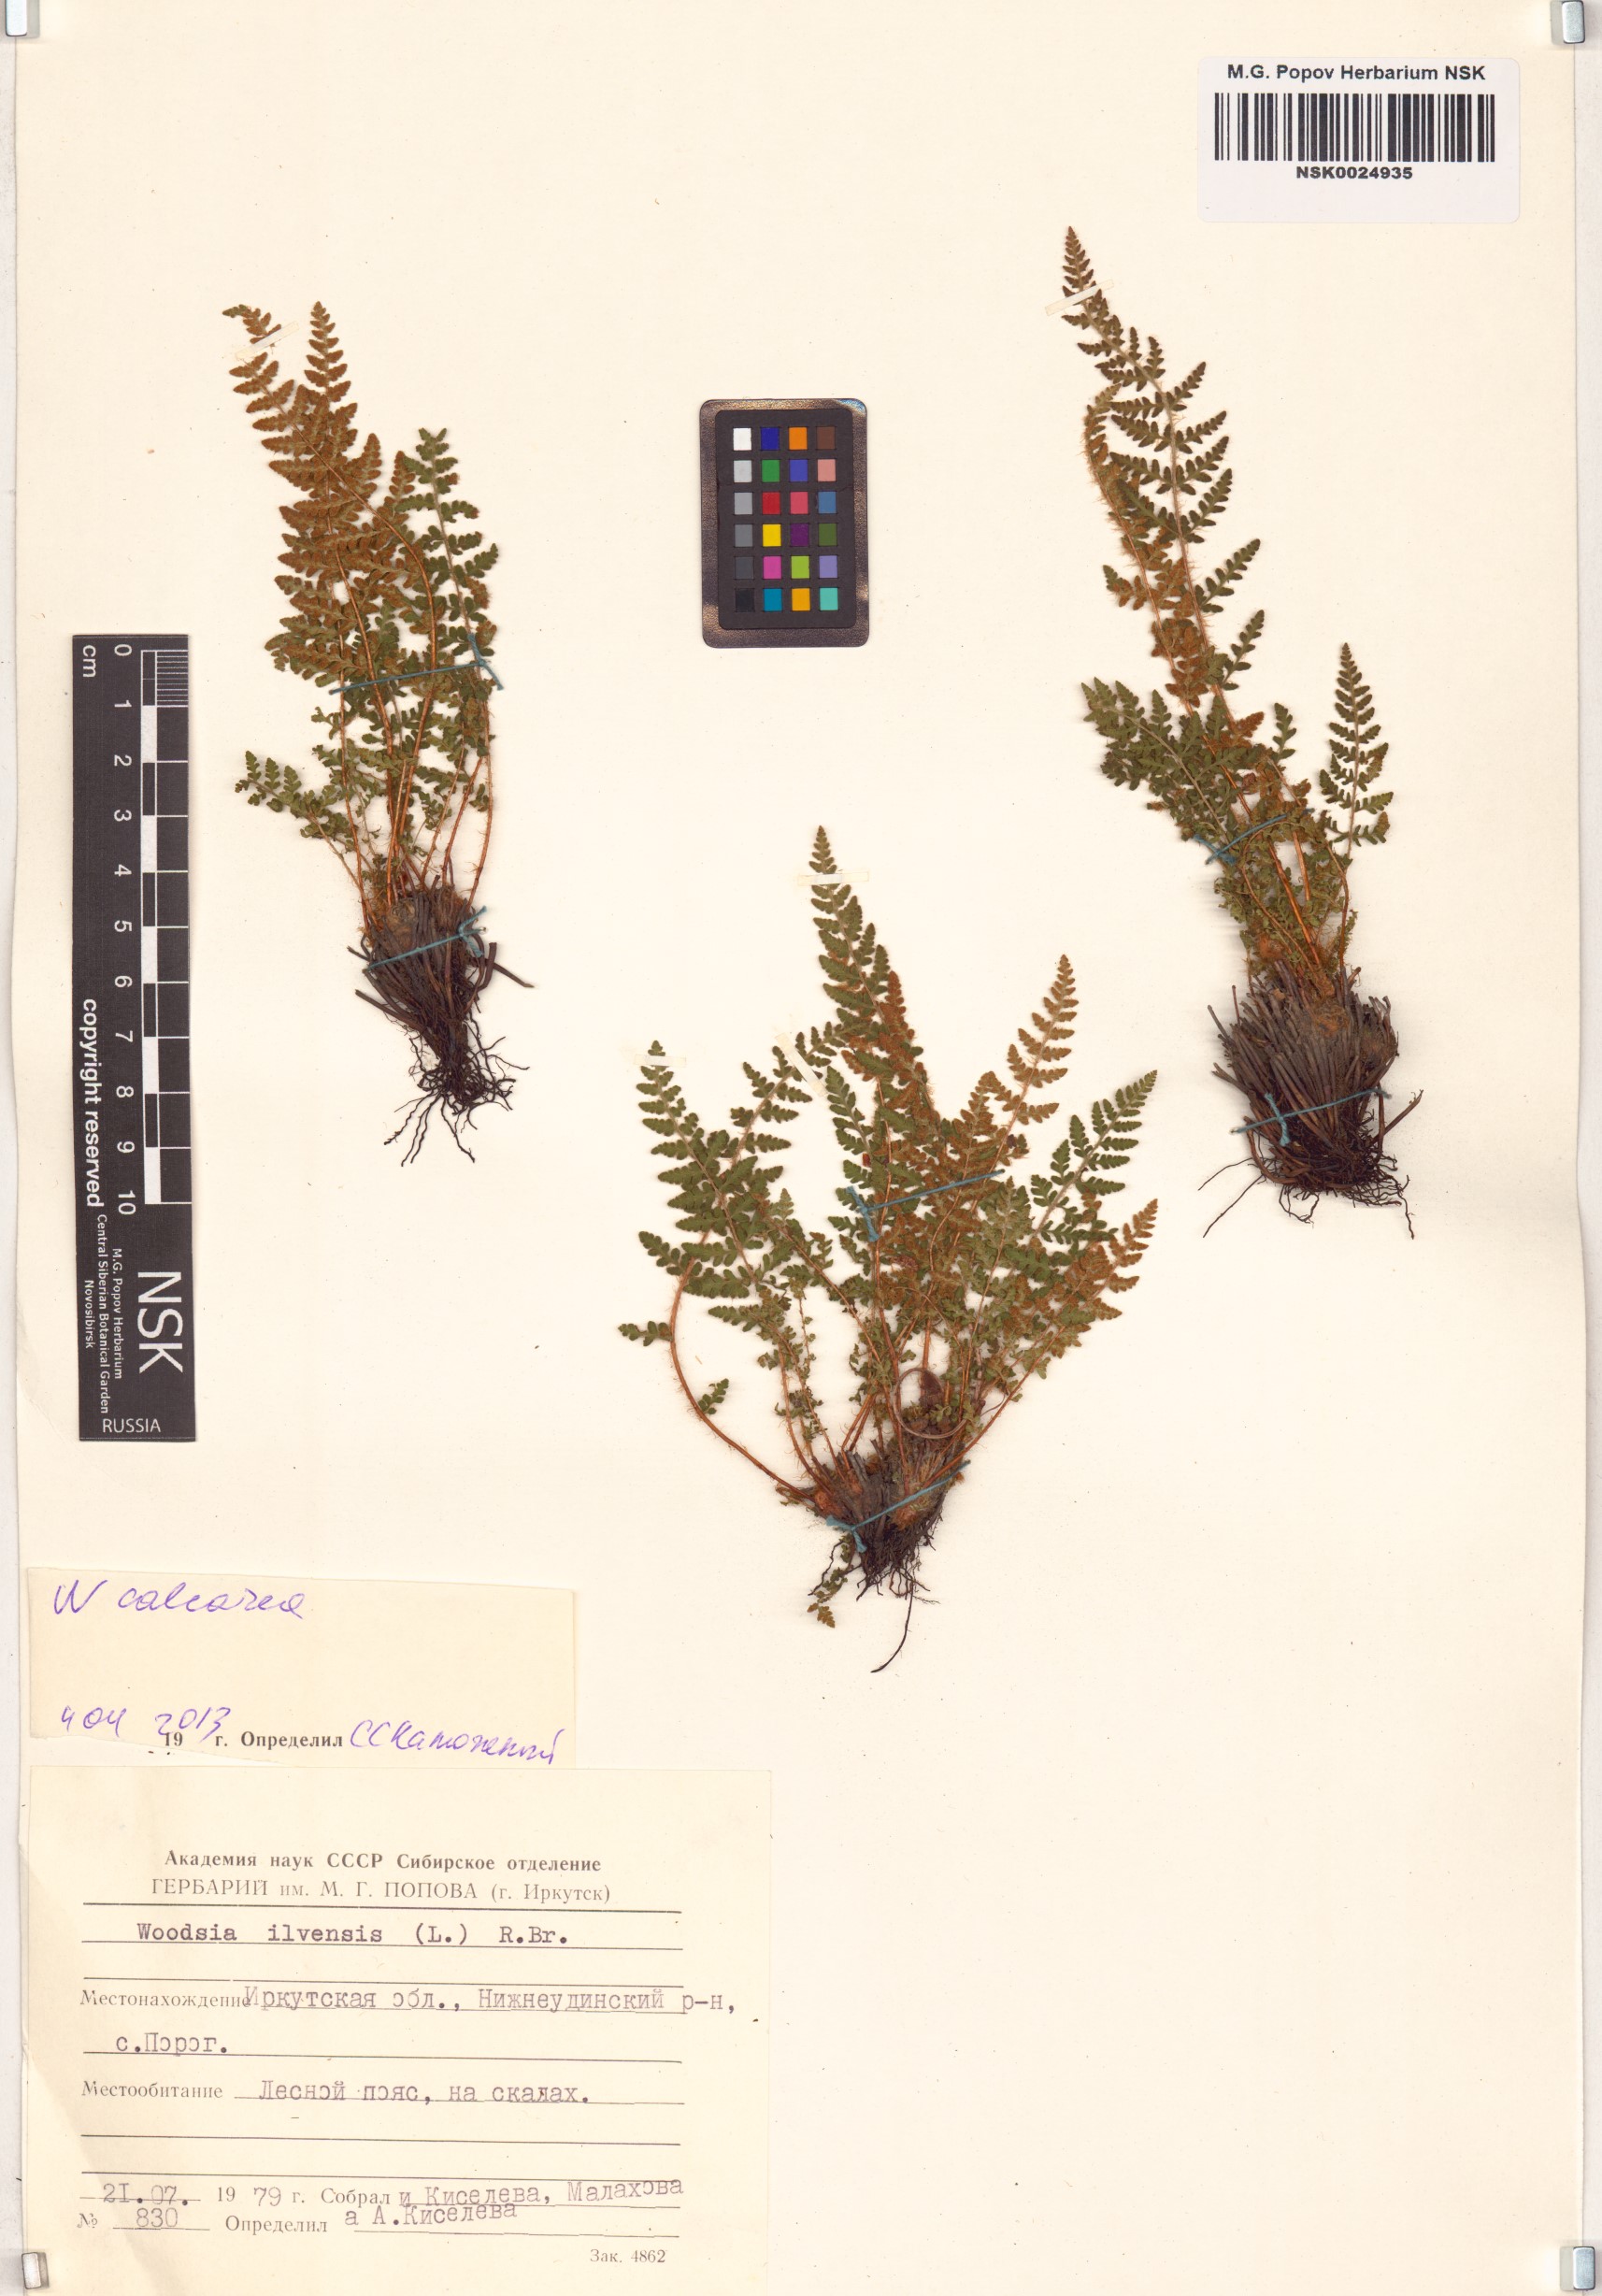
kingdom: Plantae
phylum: Tracheophyta
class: Polypodiopsida
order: Polypodiales
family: Woodsiaceae
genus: Woodsia
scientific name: Woodsia calcarea
